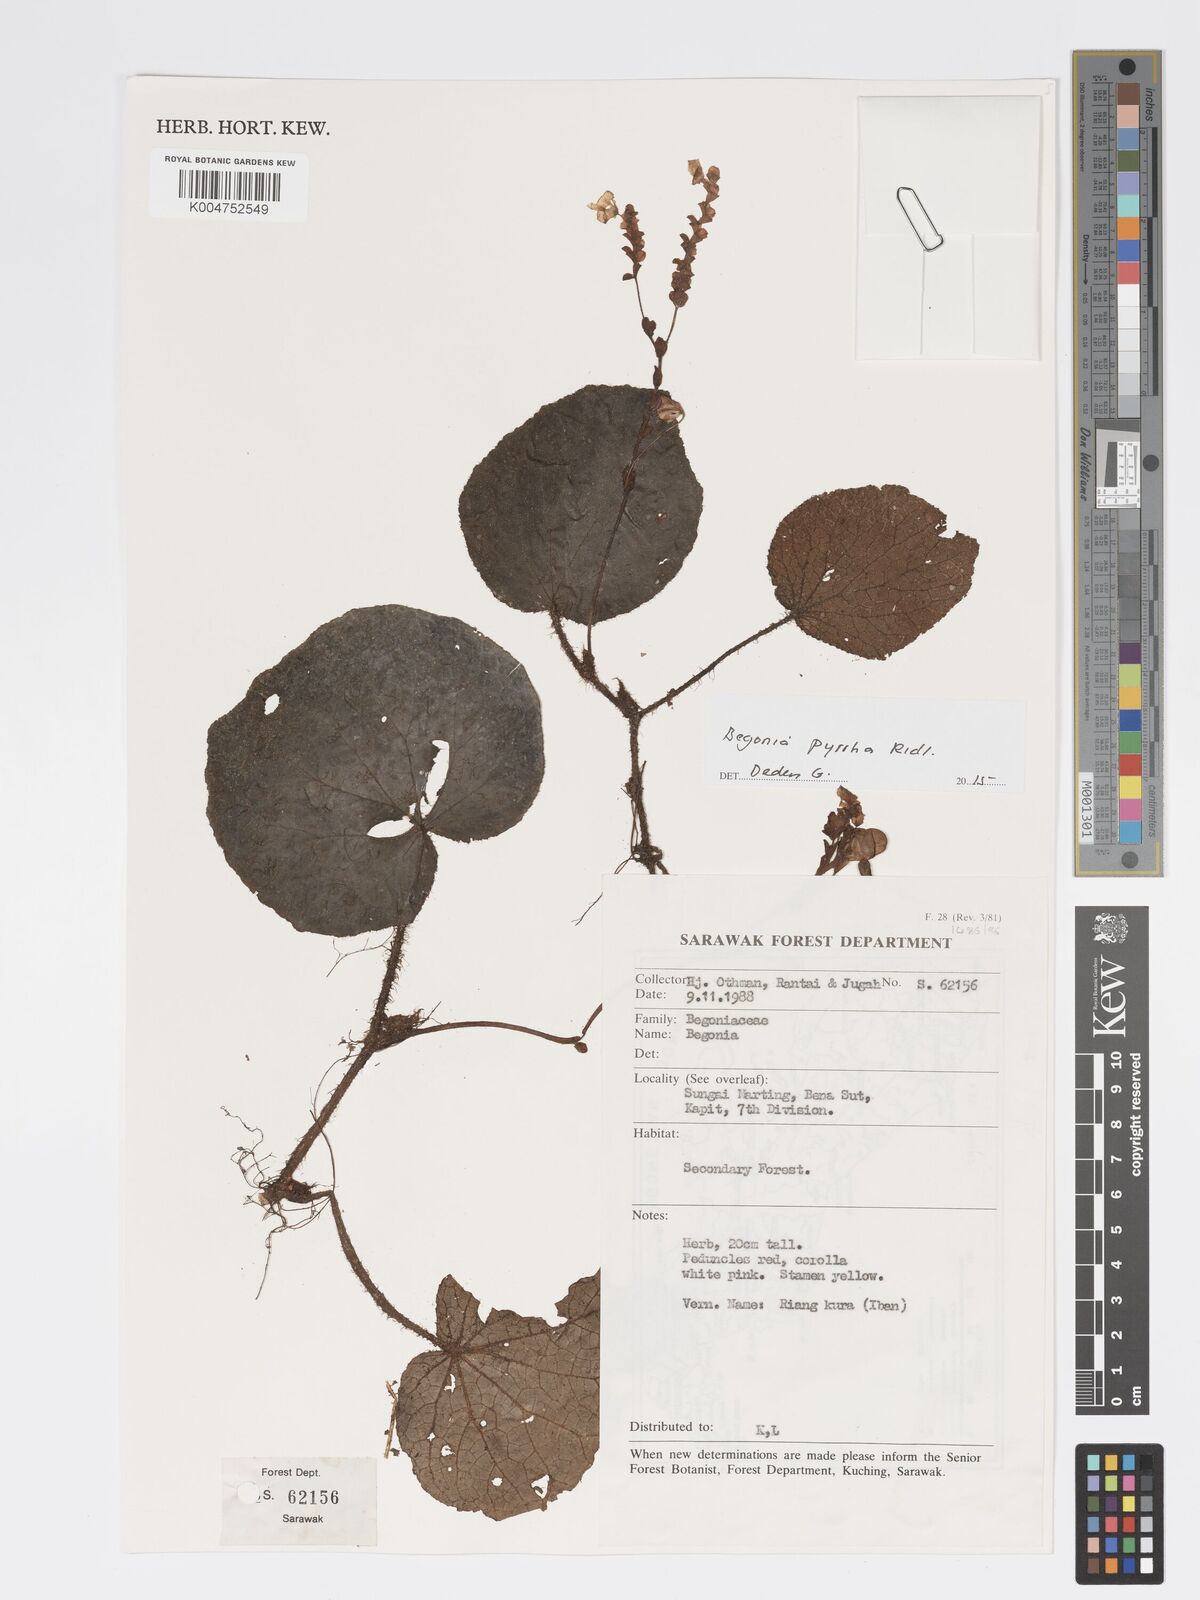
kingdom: Plantae
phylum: Tracheophyta
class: Magnoliopsida
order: Cucurbitales
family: Begoniaceae
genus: Begonia
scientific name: Begonia pyrrha
